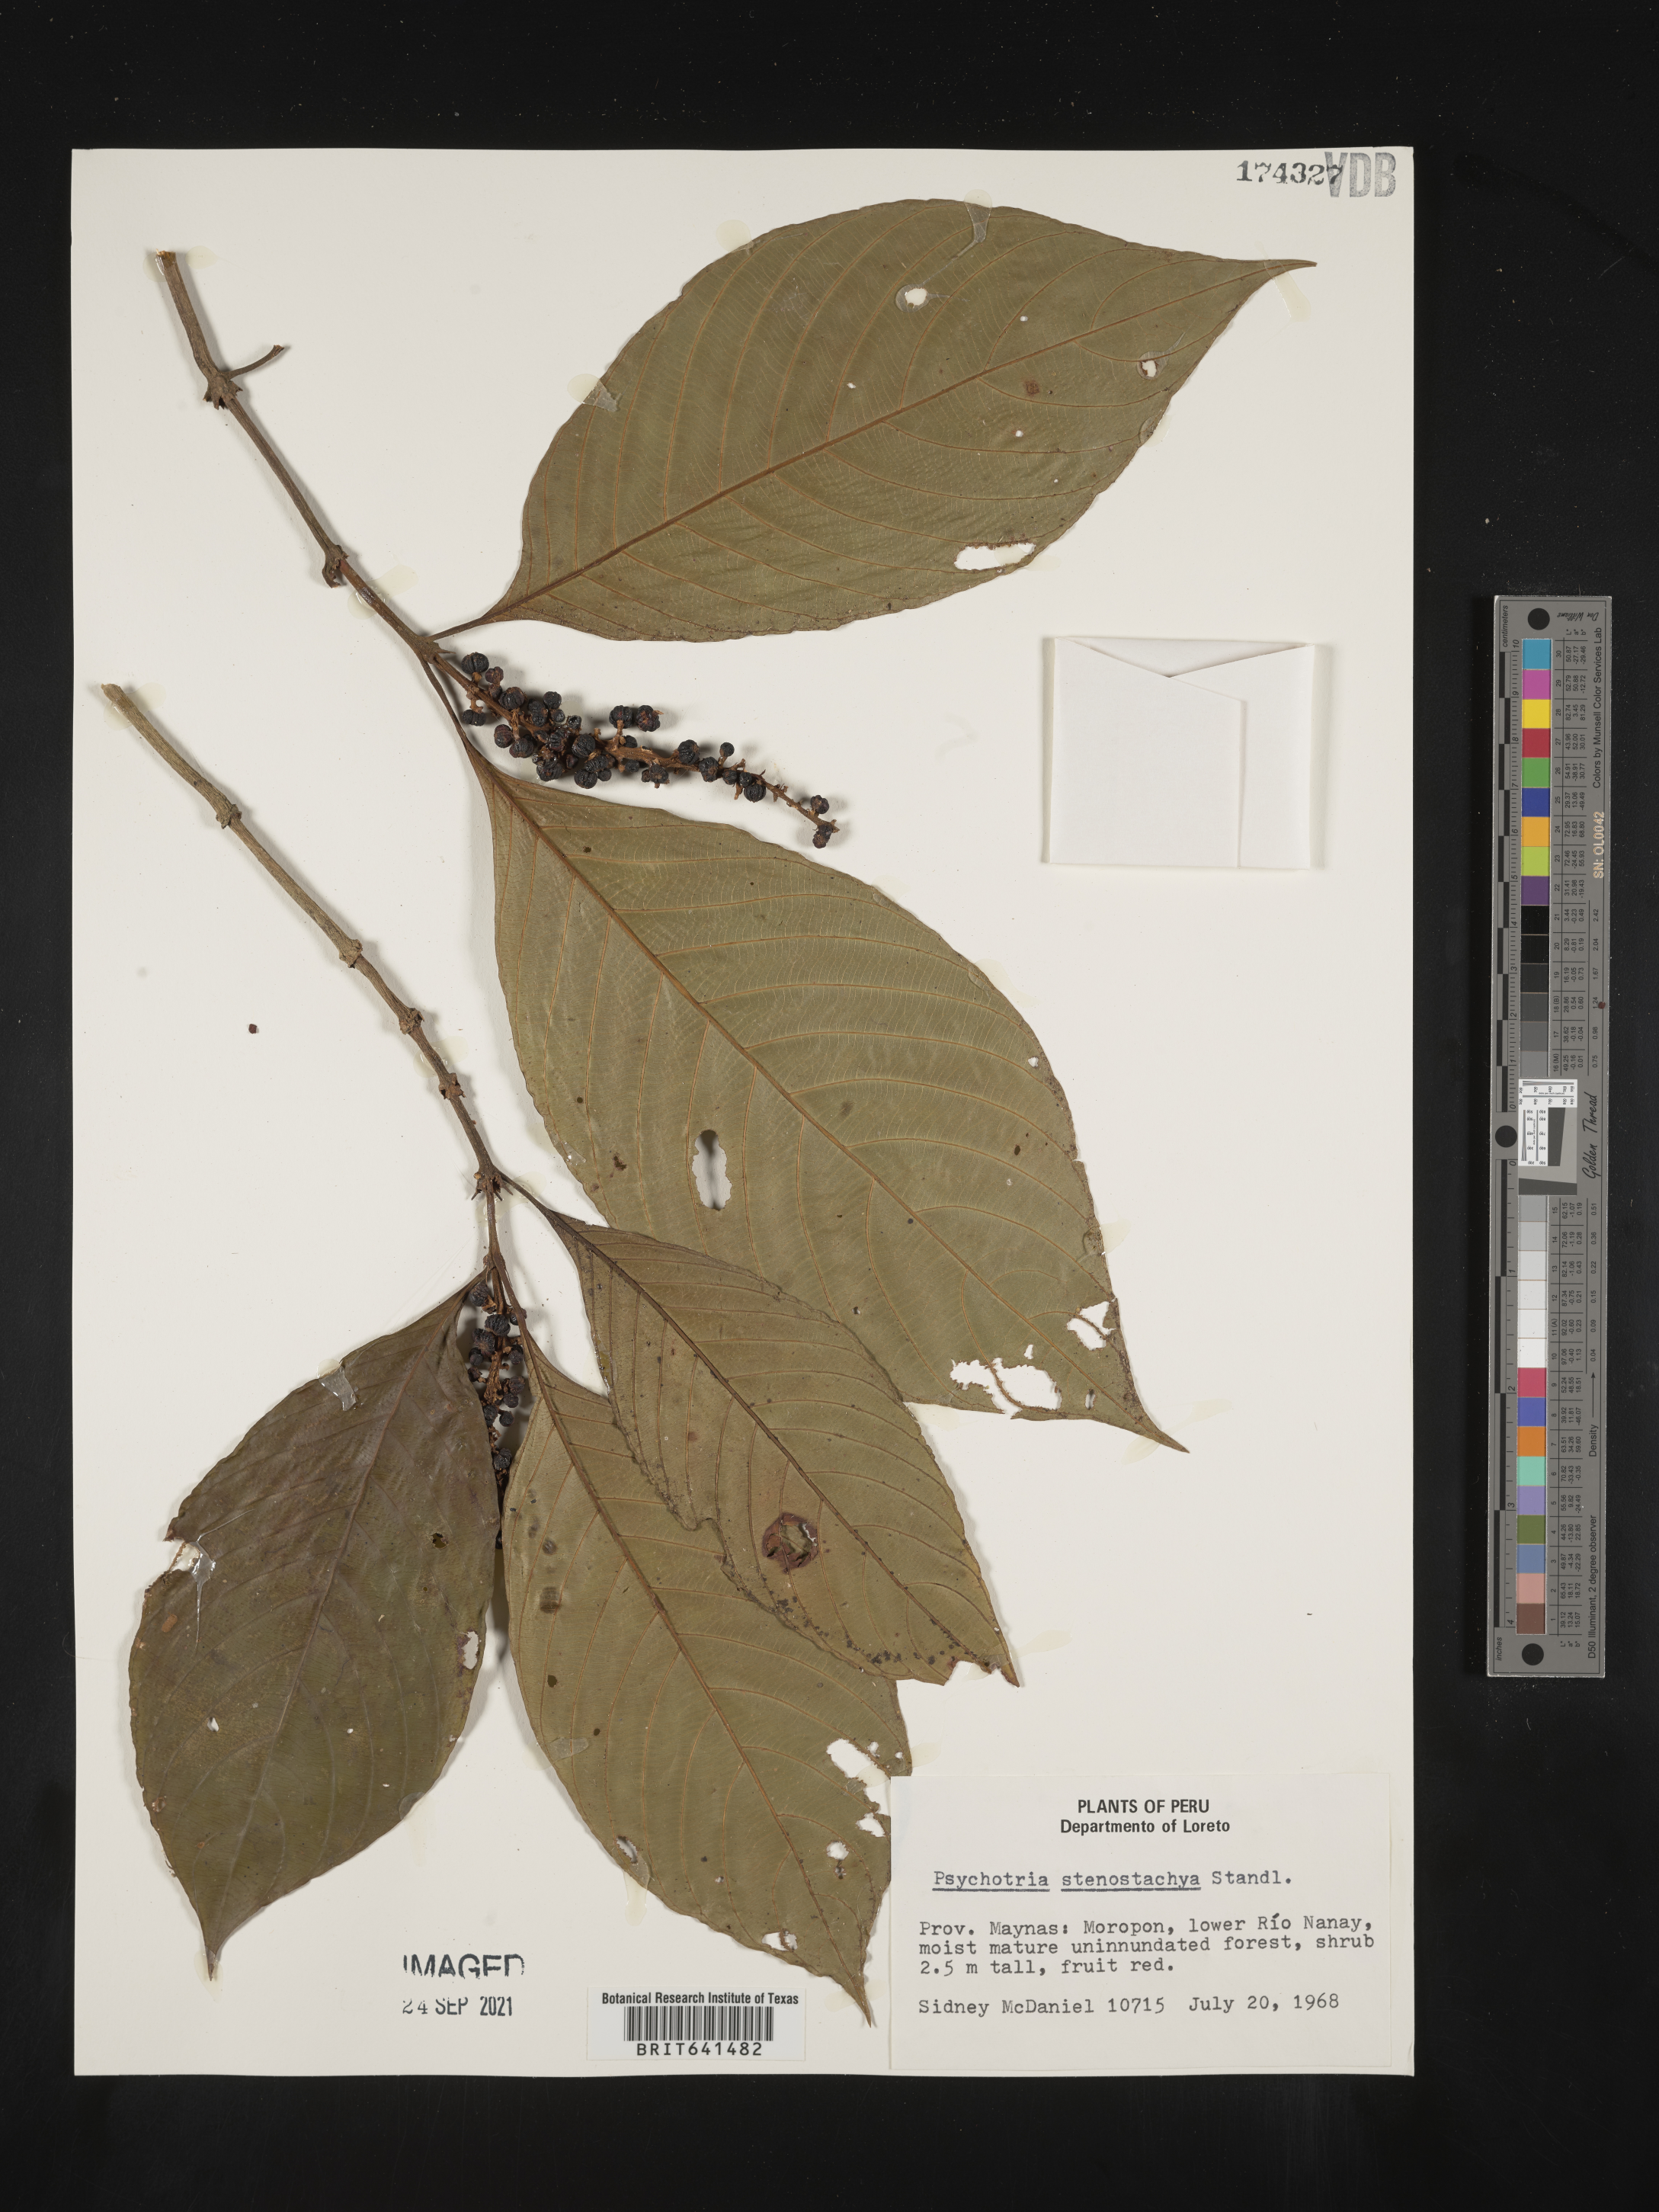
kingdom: Plantae
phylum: Tracheophyta
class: Magnoliopsida
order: Gentianales
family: Rubiaceae
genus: Psychotria
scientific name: Psychotria
